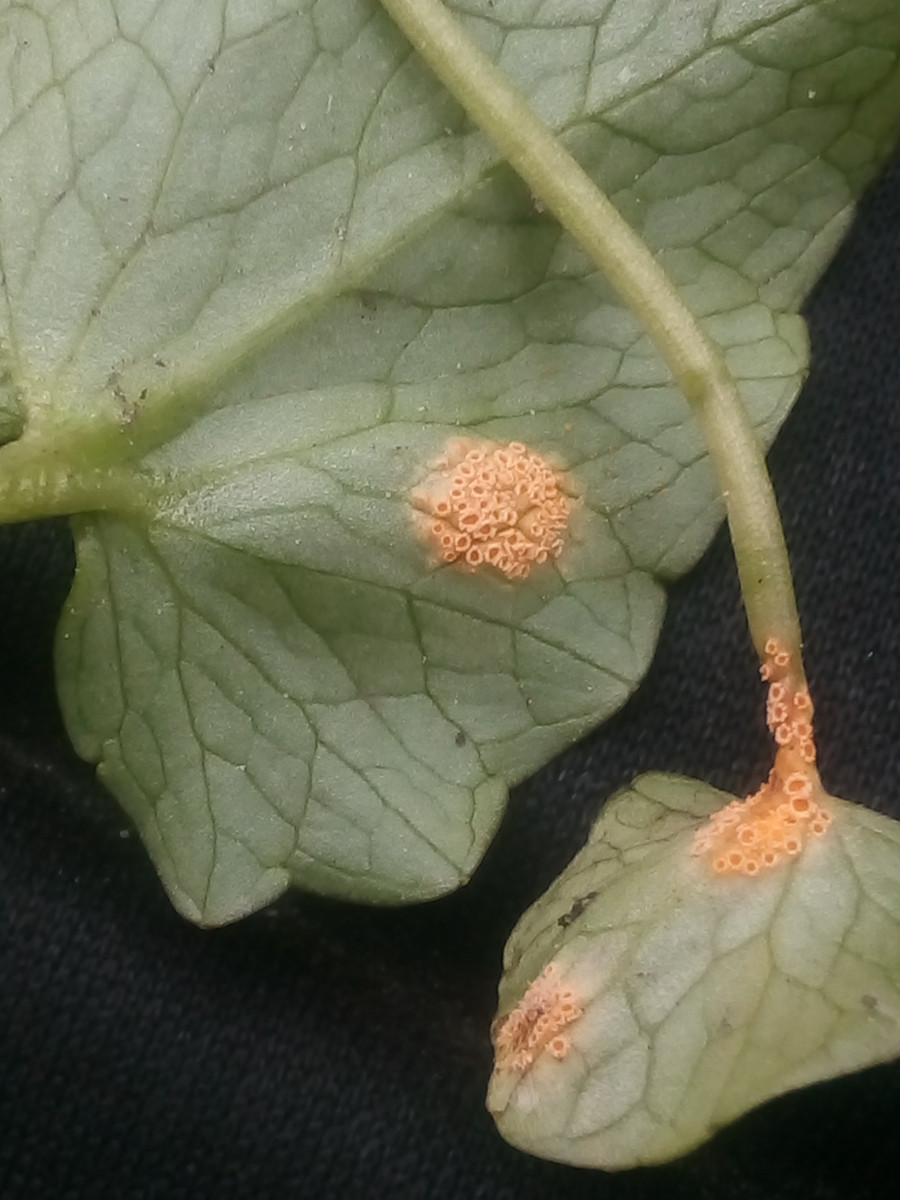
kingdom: Fungi
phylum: Basidiomycota
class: Pucciniomycetes
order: Pucciniales
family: Pucciniaceae
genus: Uromyces
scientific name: Uromyces dactylidis
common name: ranunkel-encellerust
